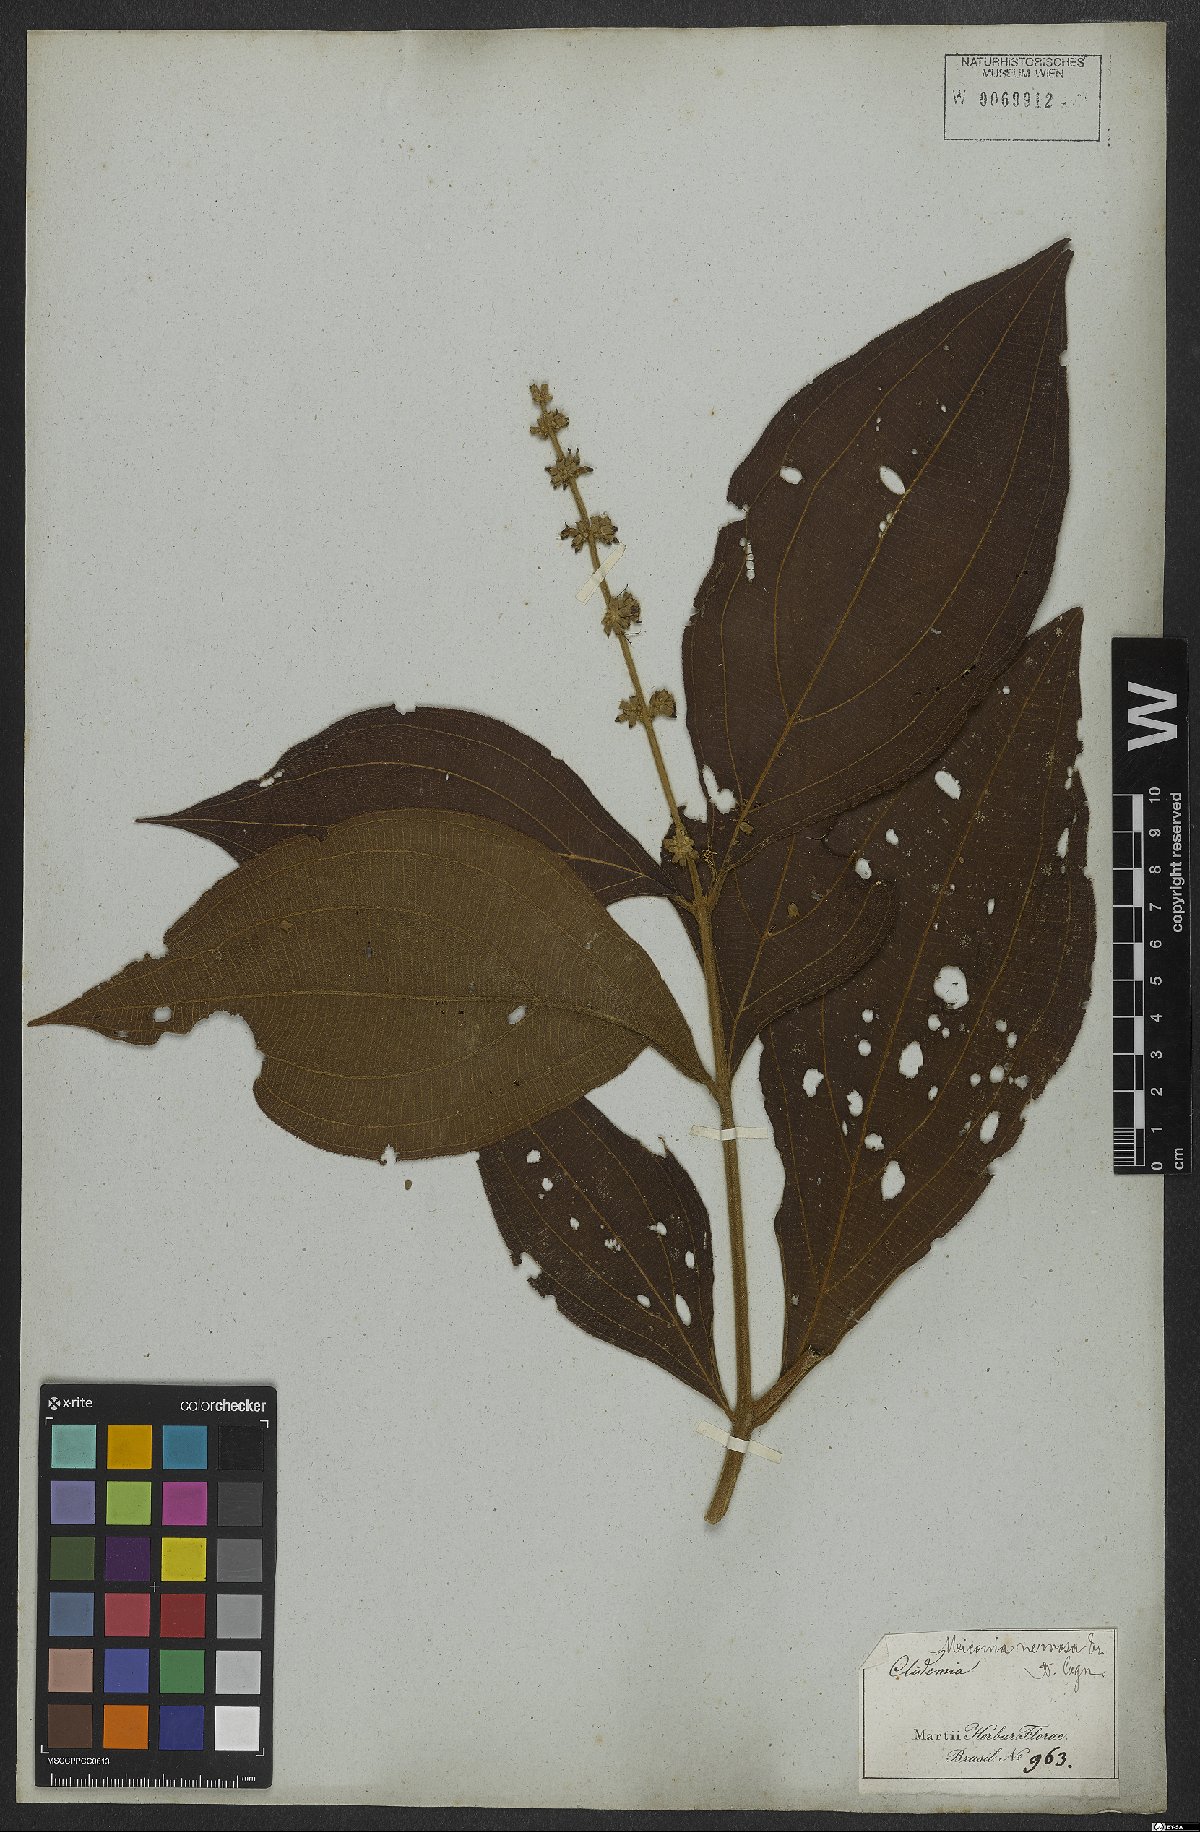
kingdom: Plantae
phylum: Tracheophyta
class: Magnoliopsida
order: Myrtales
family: Melastomataceae
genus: Miconia
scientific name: Miconia nervosa
